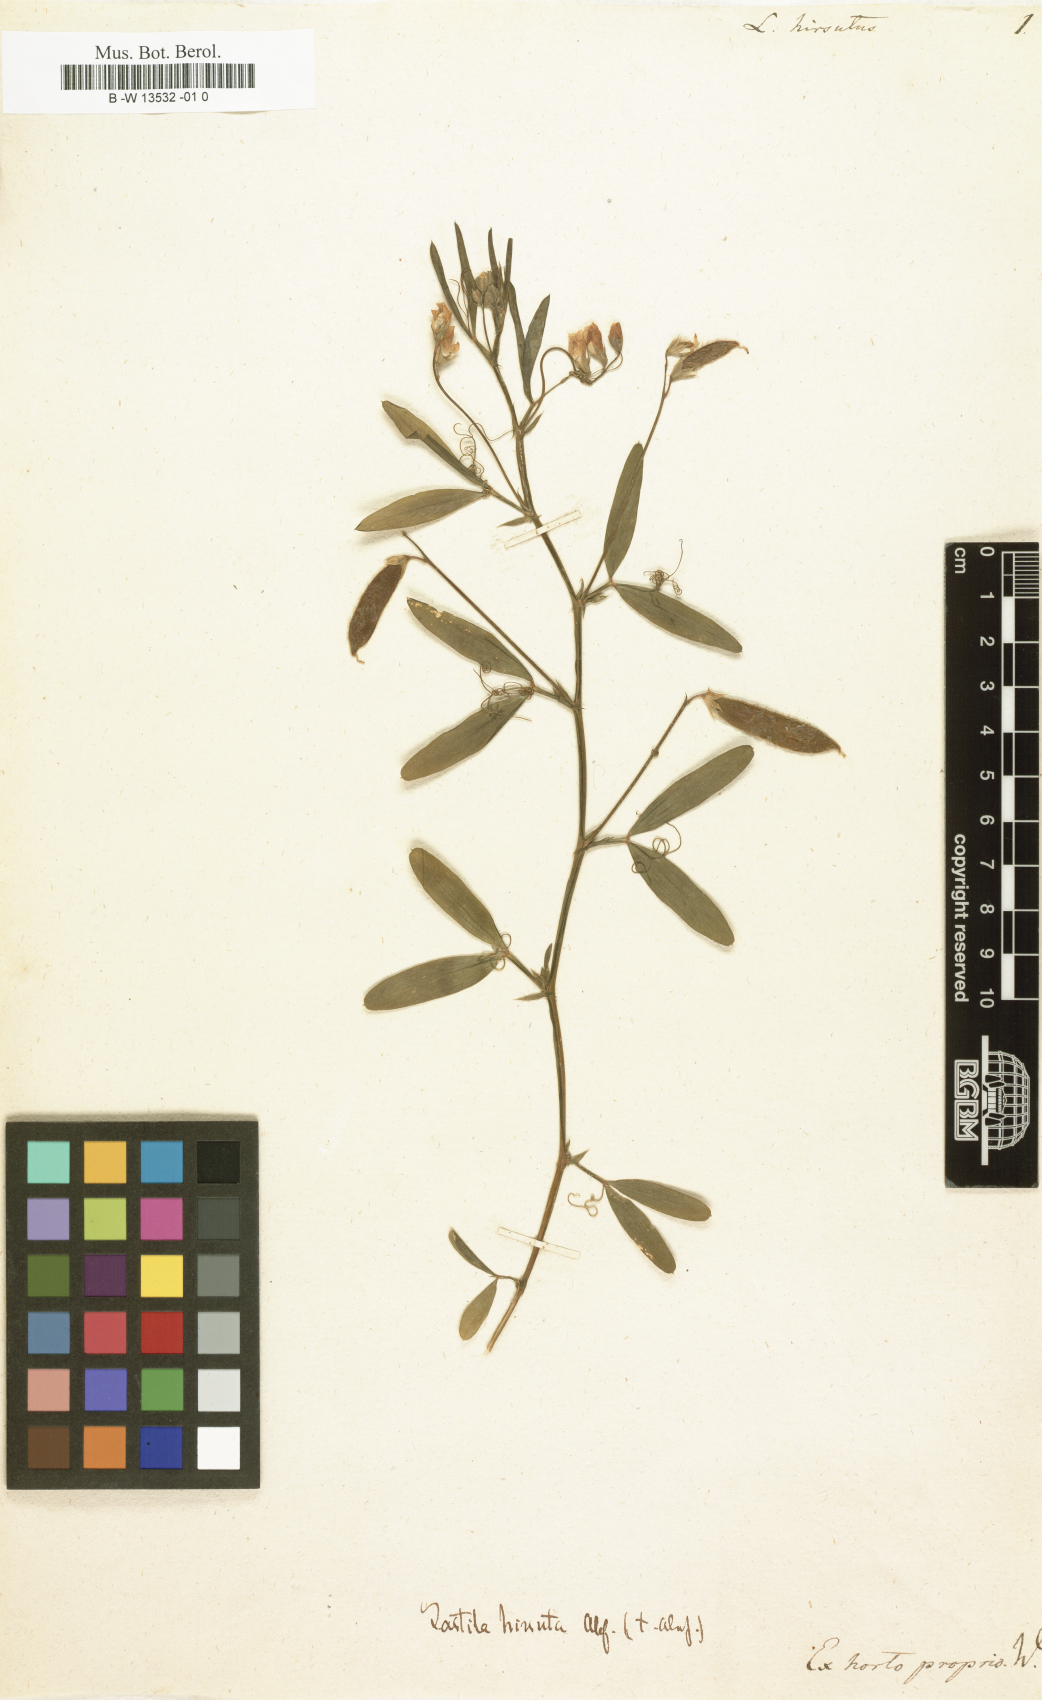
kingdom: Plantae
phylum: Tracheophyta
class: Magnoliopsida
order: Fabales
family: Fabaceae
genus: Lathyrus
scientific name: Lathyrus hirsutus
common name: Hairy vetchling
